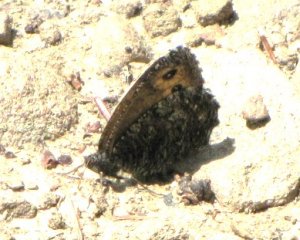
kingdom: Animalia
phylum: Arthropoda
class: Insecta
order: Lepidoptera
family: Nymphalidae
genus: Oeneis
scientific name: Oeneis jutta
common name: Jutta Arctic
